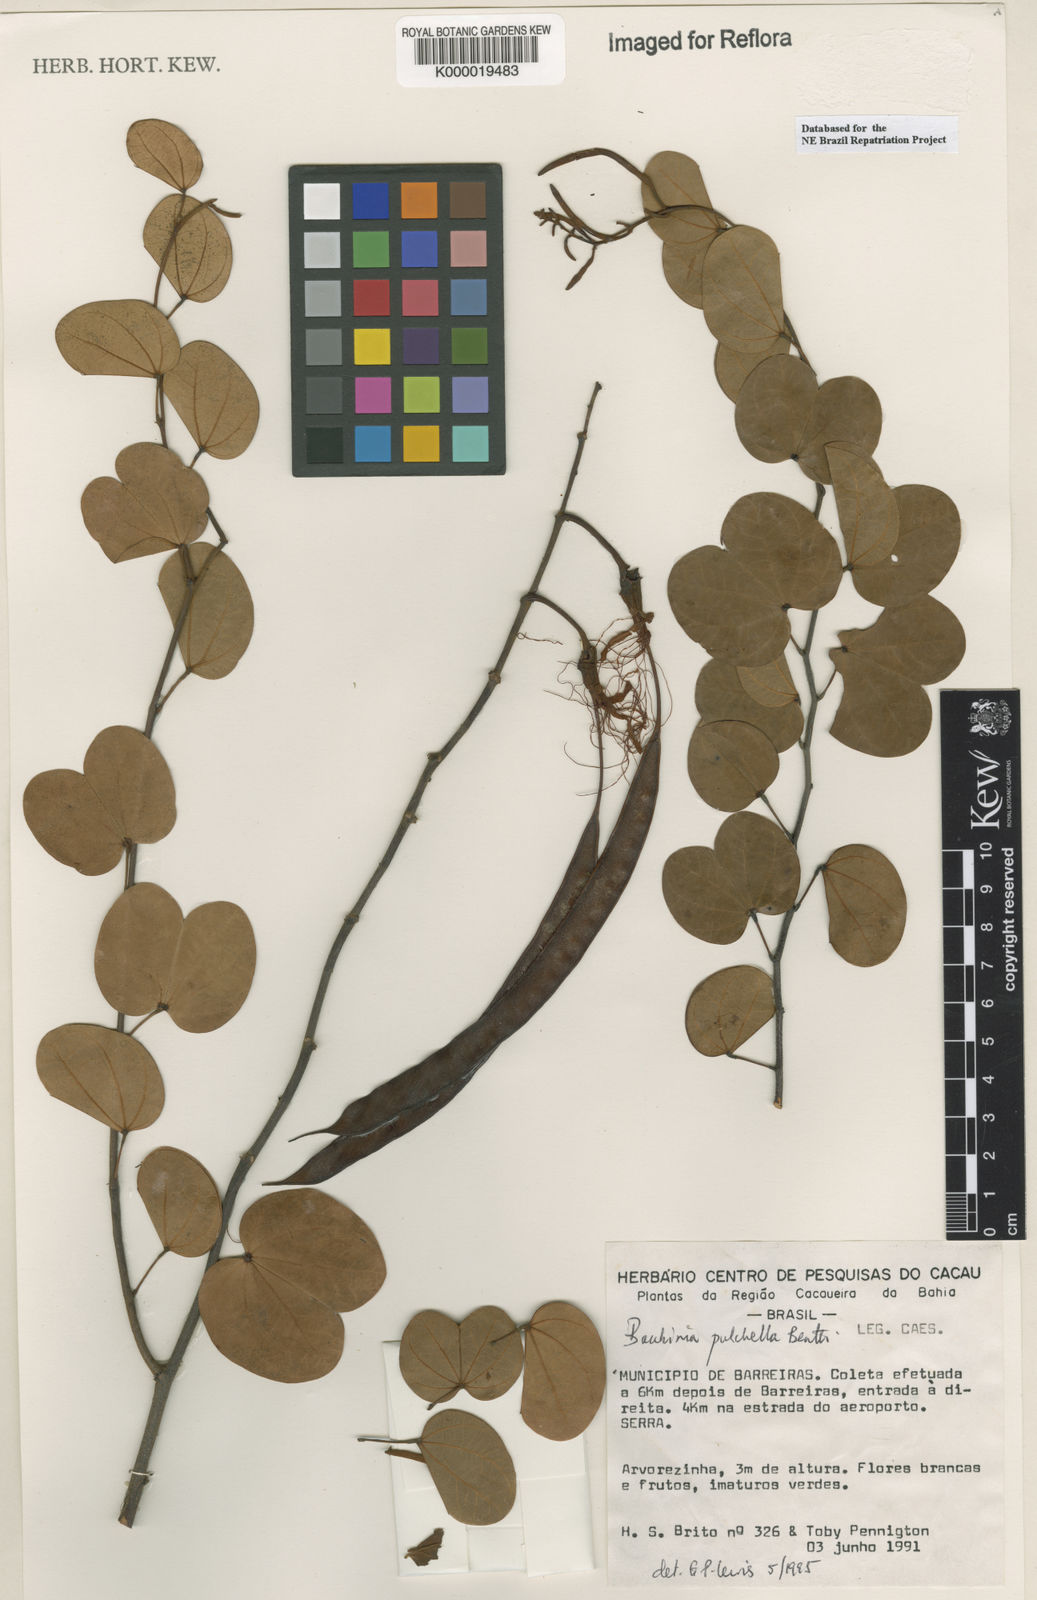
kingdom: Plantae
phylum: Tracheophyta
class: Magnoliopsida
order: Fabales
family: Fabaceae
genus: Bauhinia
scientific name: Bauhinia pulchella
